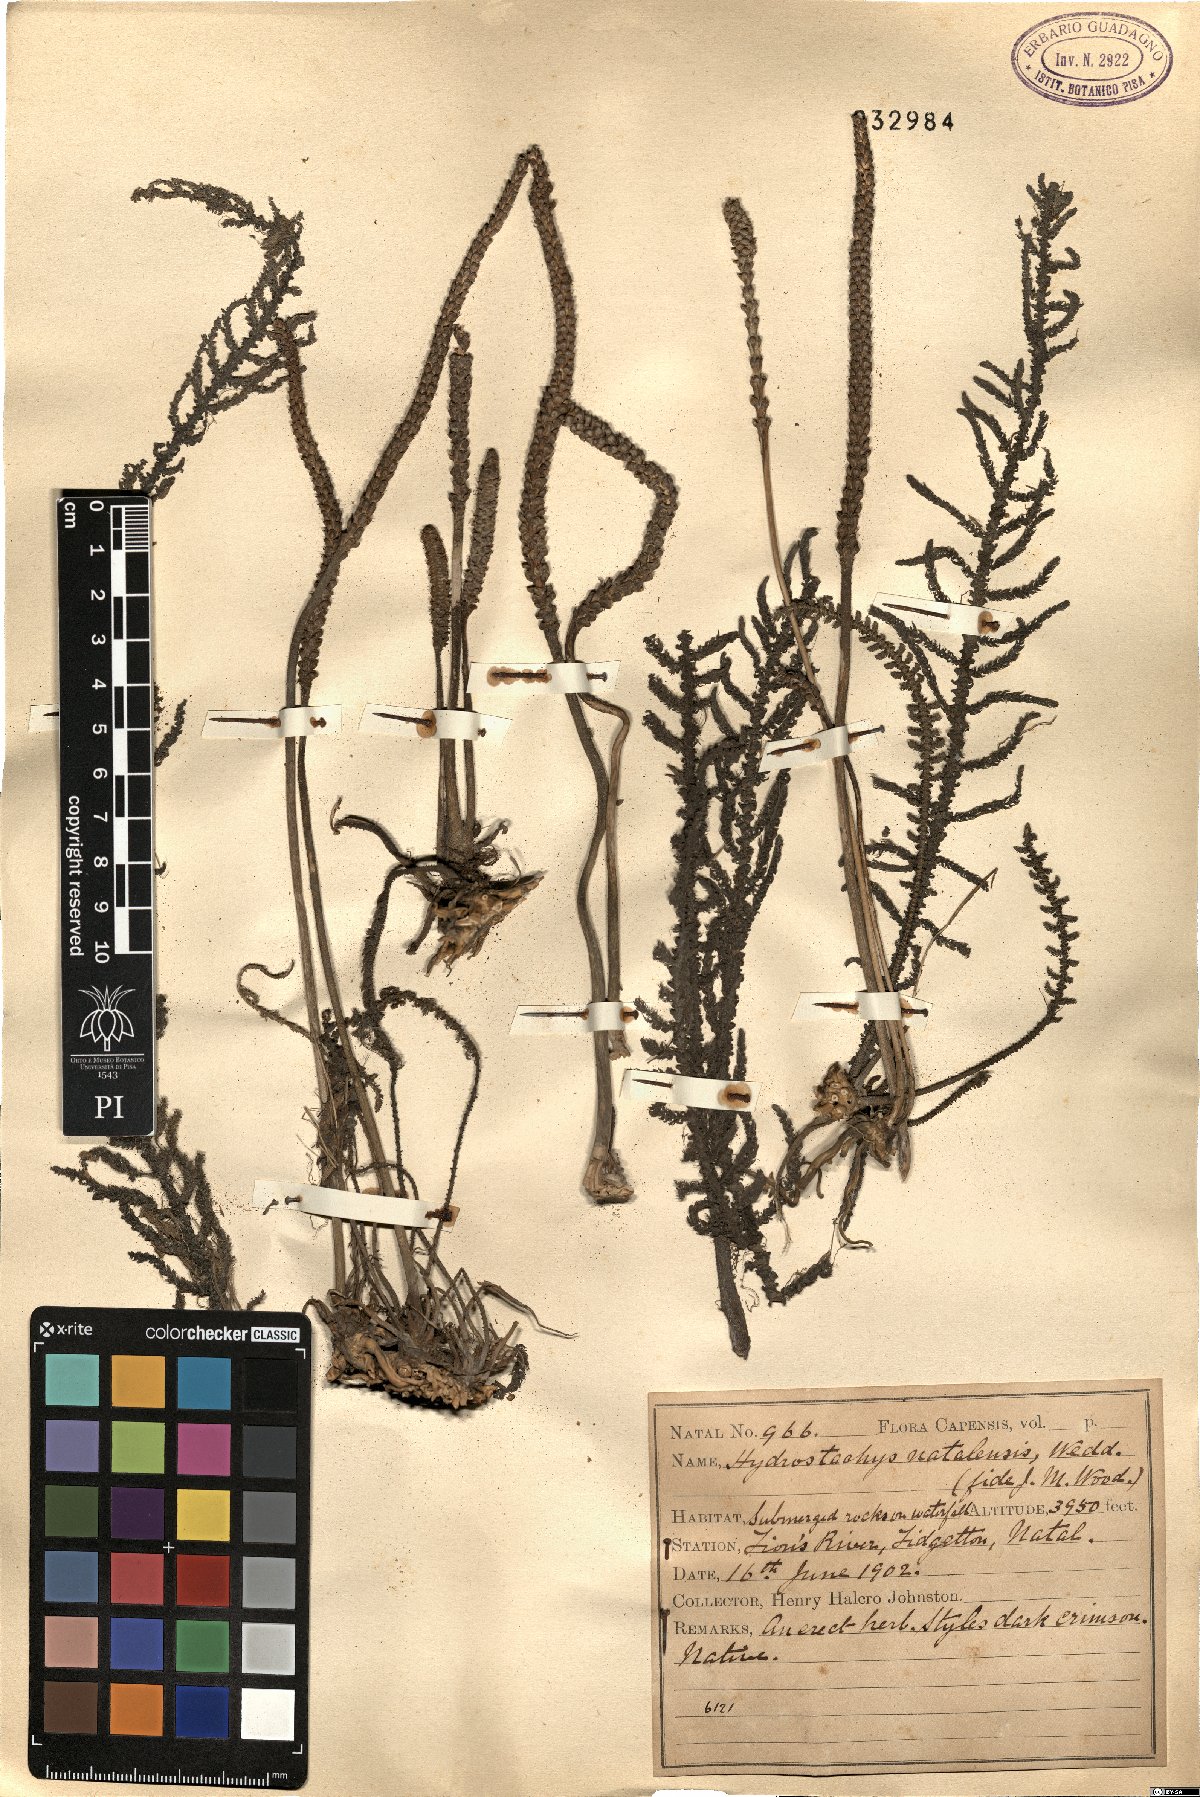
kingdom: Plantae
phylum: Tracheophyta
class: Magnoliopsida
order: Cornales
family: Hydrostachyaceae
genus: Hydrostachys
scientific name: Hydrostachys polymorpha
